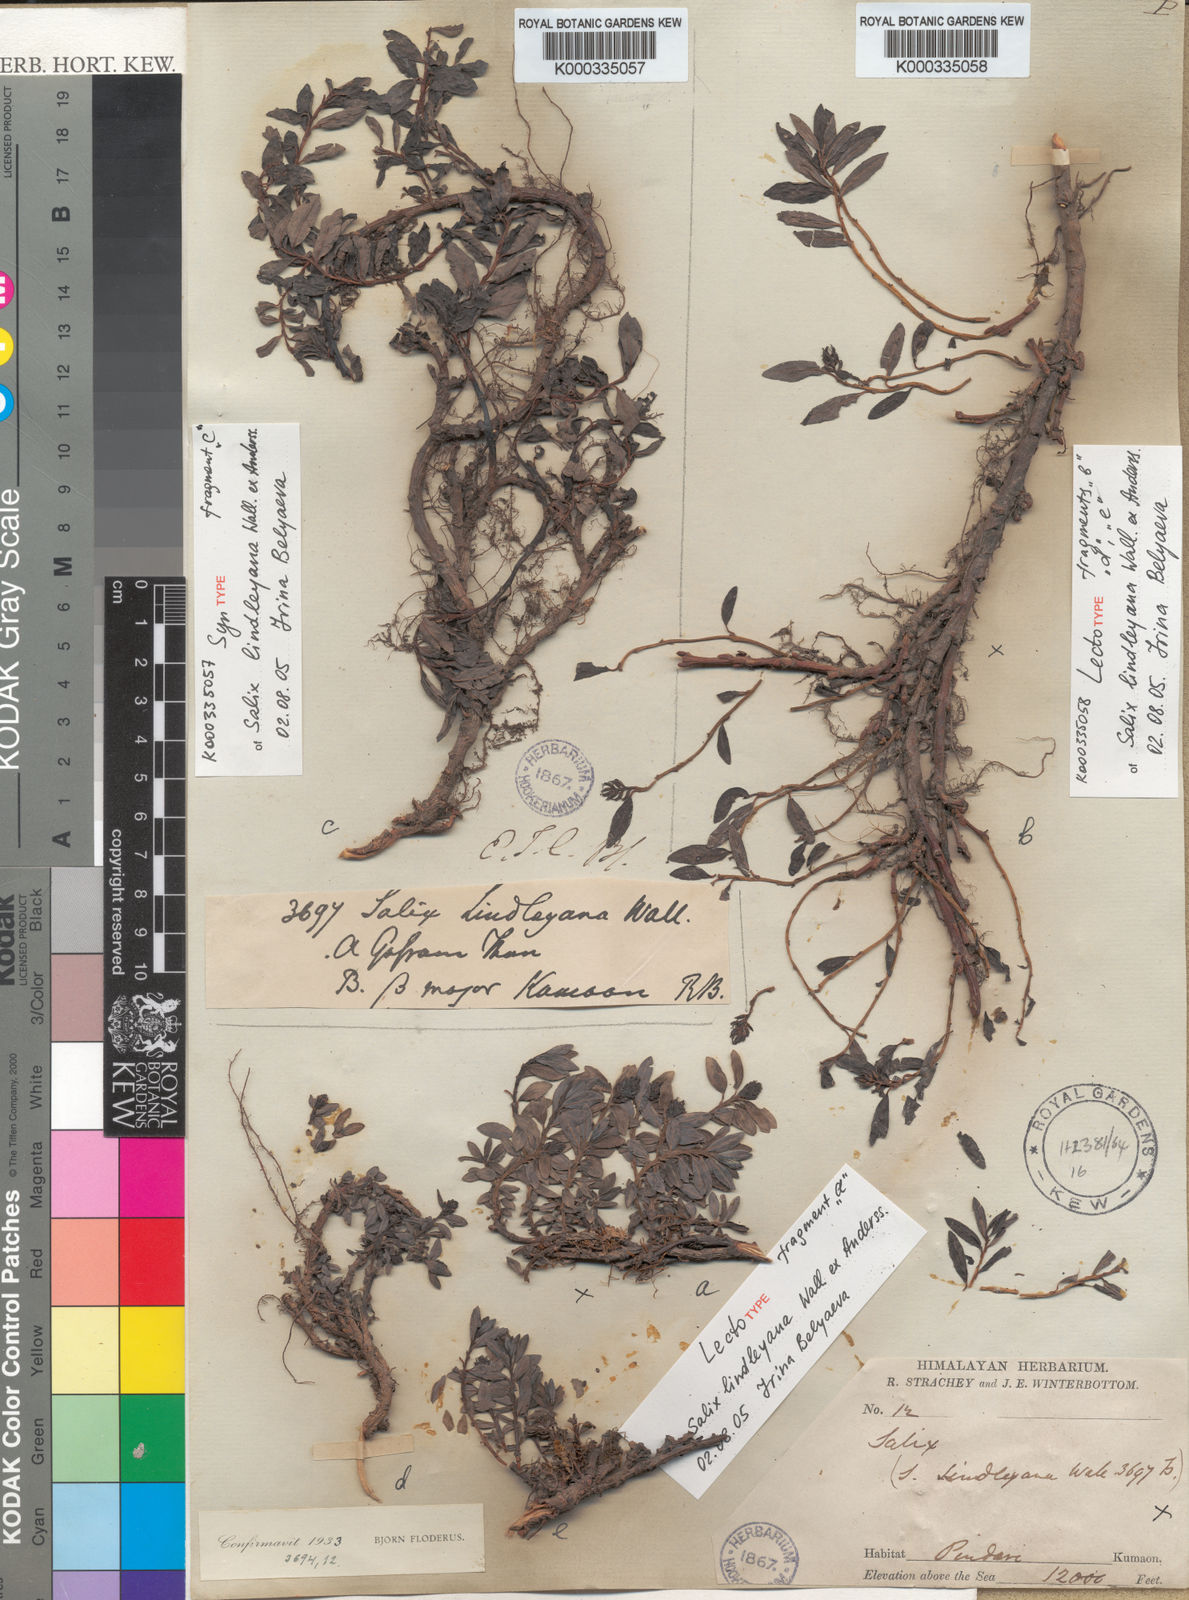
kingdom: Plantae
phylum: Tracheophyta
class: Magnoliopsida
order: Malpighiales
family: Salicaceae
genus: Salix
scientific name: Salix lindleyana
